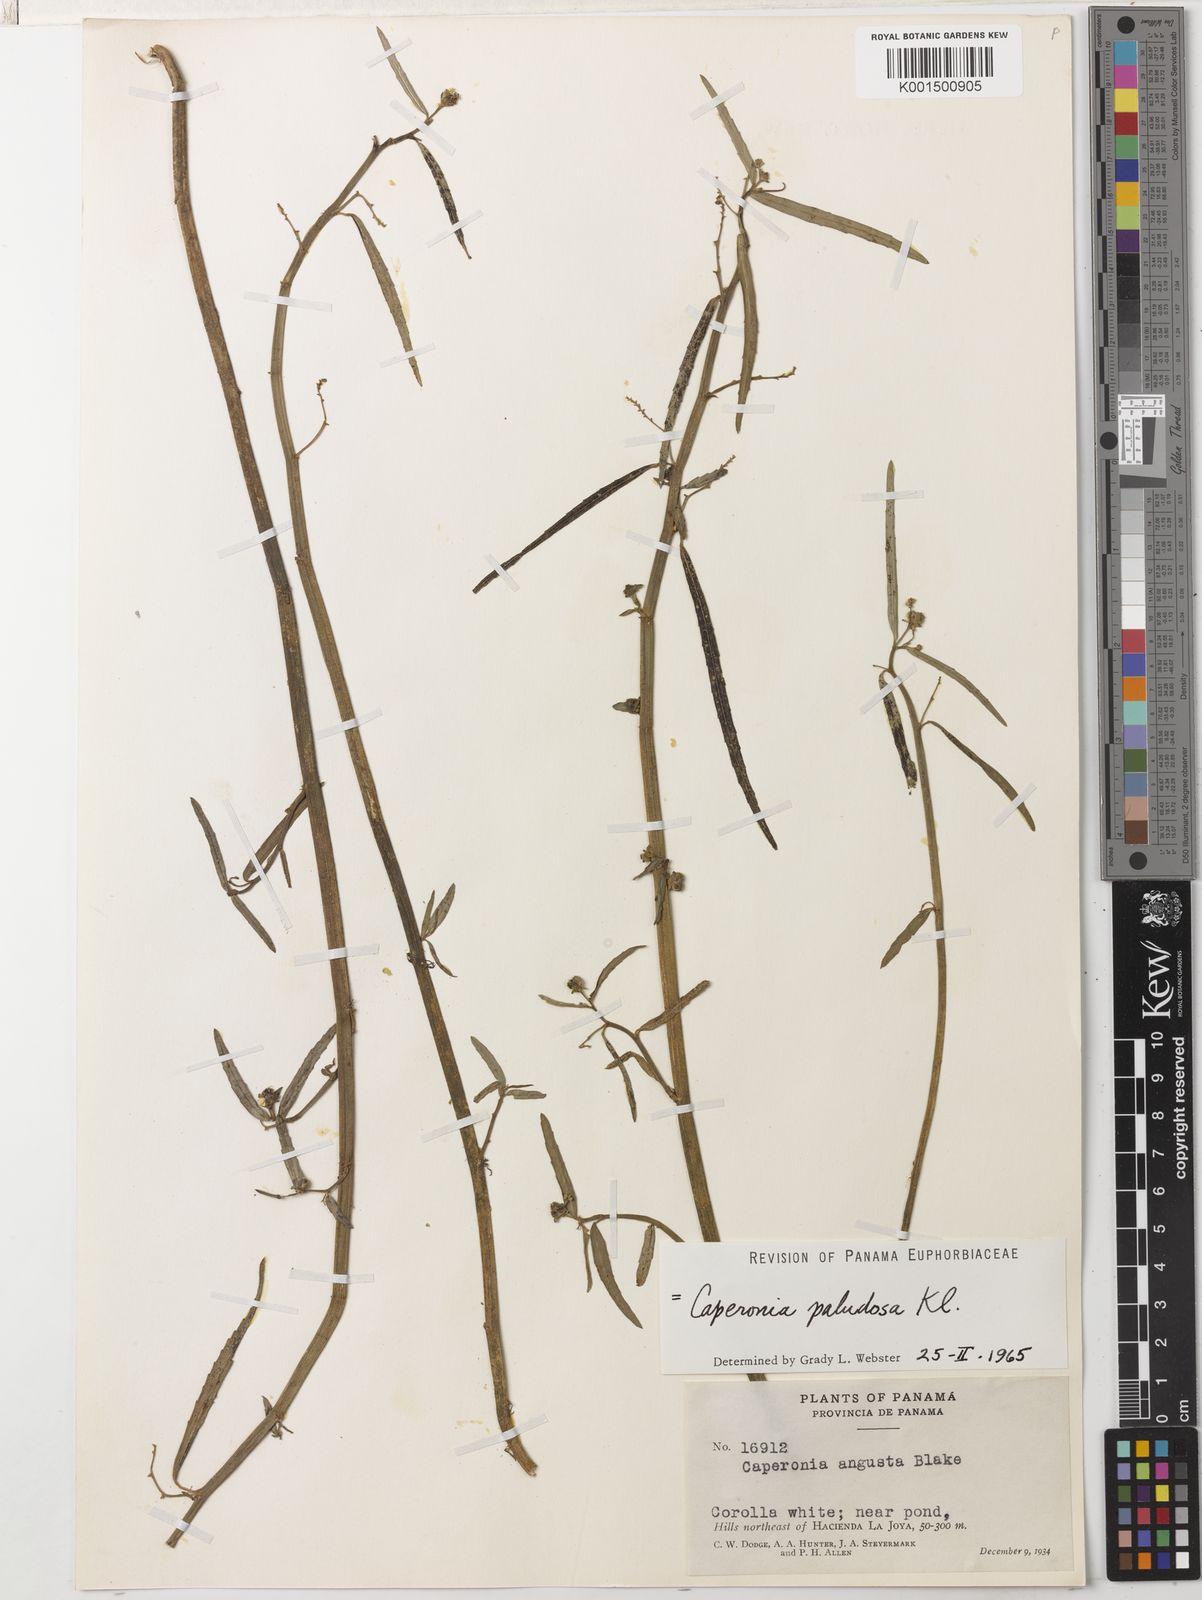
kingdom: Plantae
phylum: Tracheophyta
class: Magnoliopsida
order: Malpighiales
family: Euphorbiaceae
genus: Caperonia
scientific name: Caperonia castaneifolia
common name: Chestnutleaf false croton
